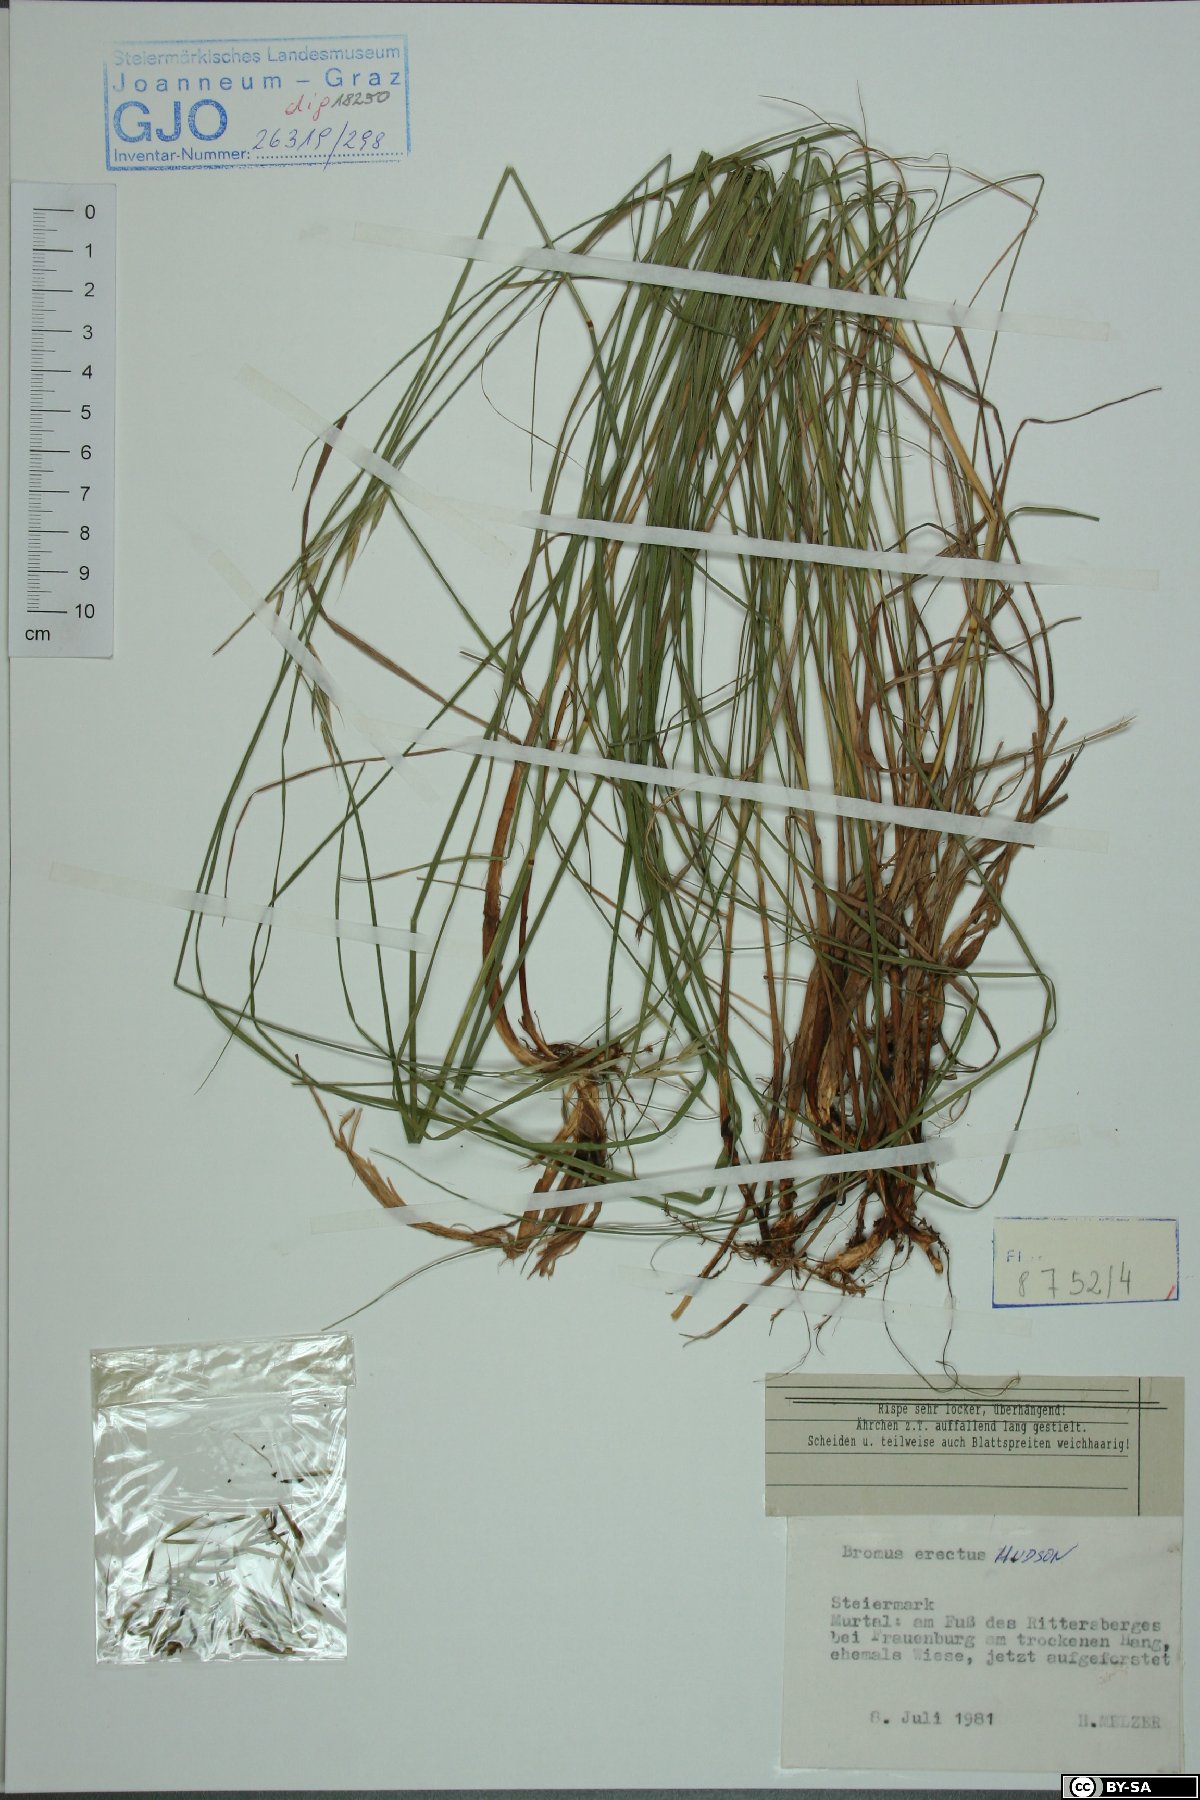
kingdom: Plantae
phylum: Tracheophyta
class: Liliopsida
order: Poales
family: Poaceae
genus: Bromus
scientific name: Bromus erectus
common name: Erect brome
